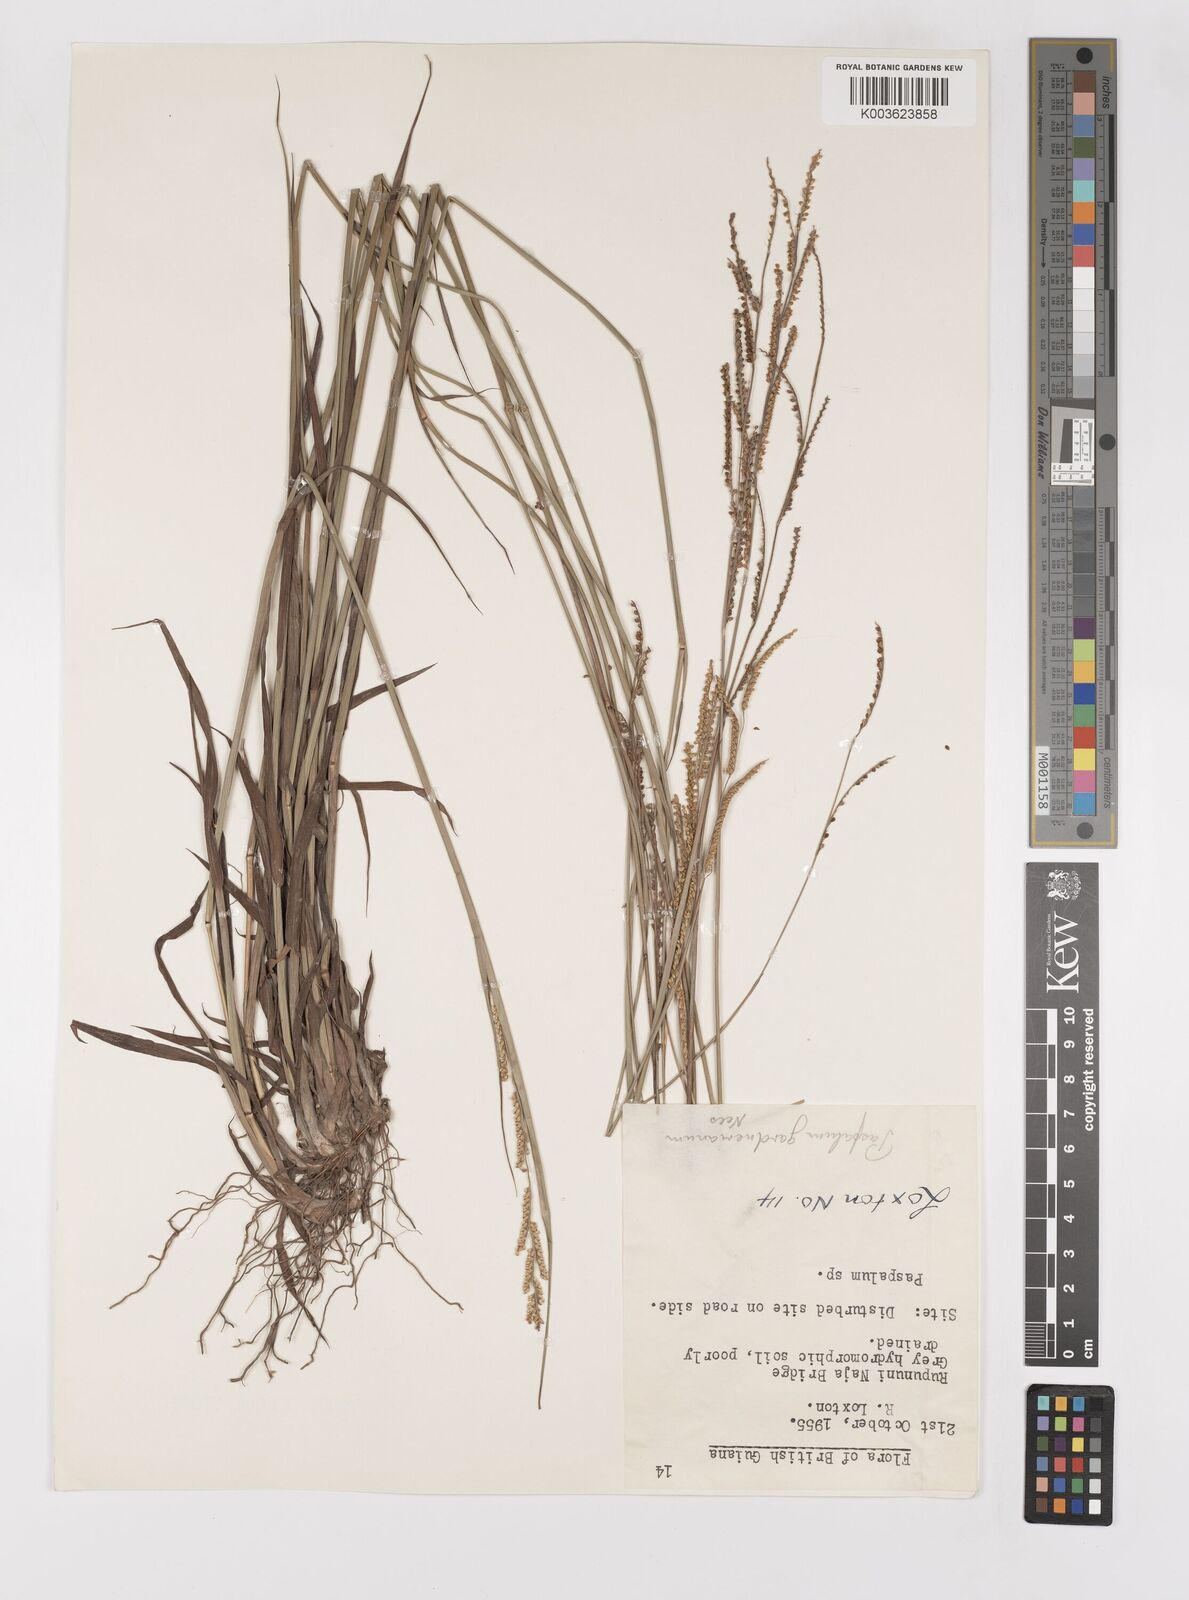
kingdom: Plantae
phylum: Tracheophyta
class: Liliopsida
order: Poales
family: Poaceae
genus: Paspalum
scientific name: Paspalum gardnerianum
